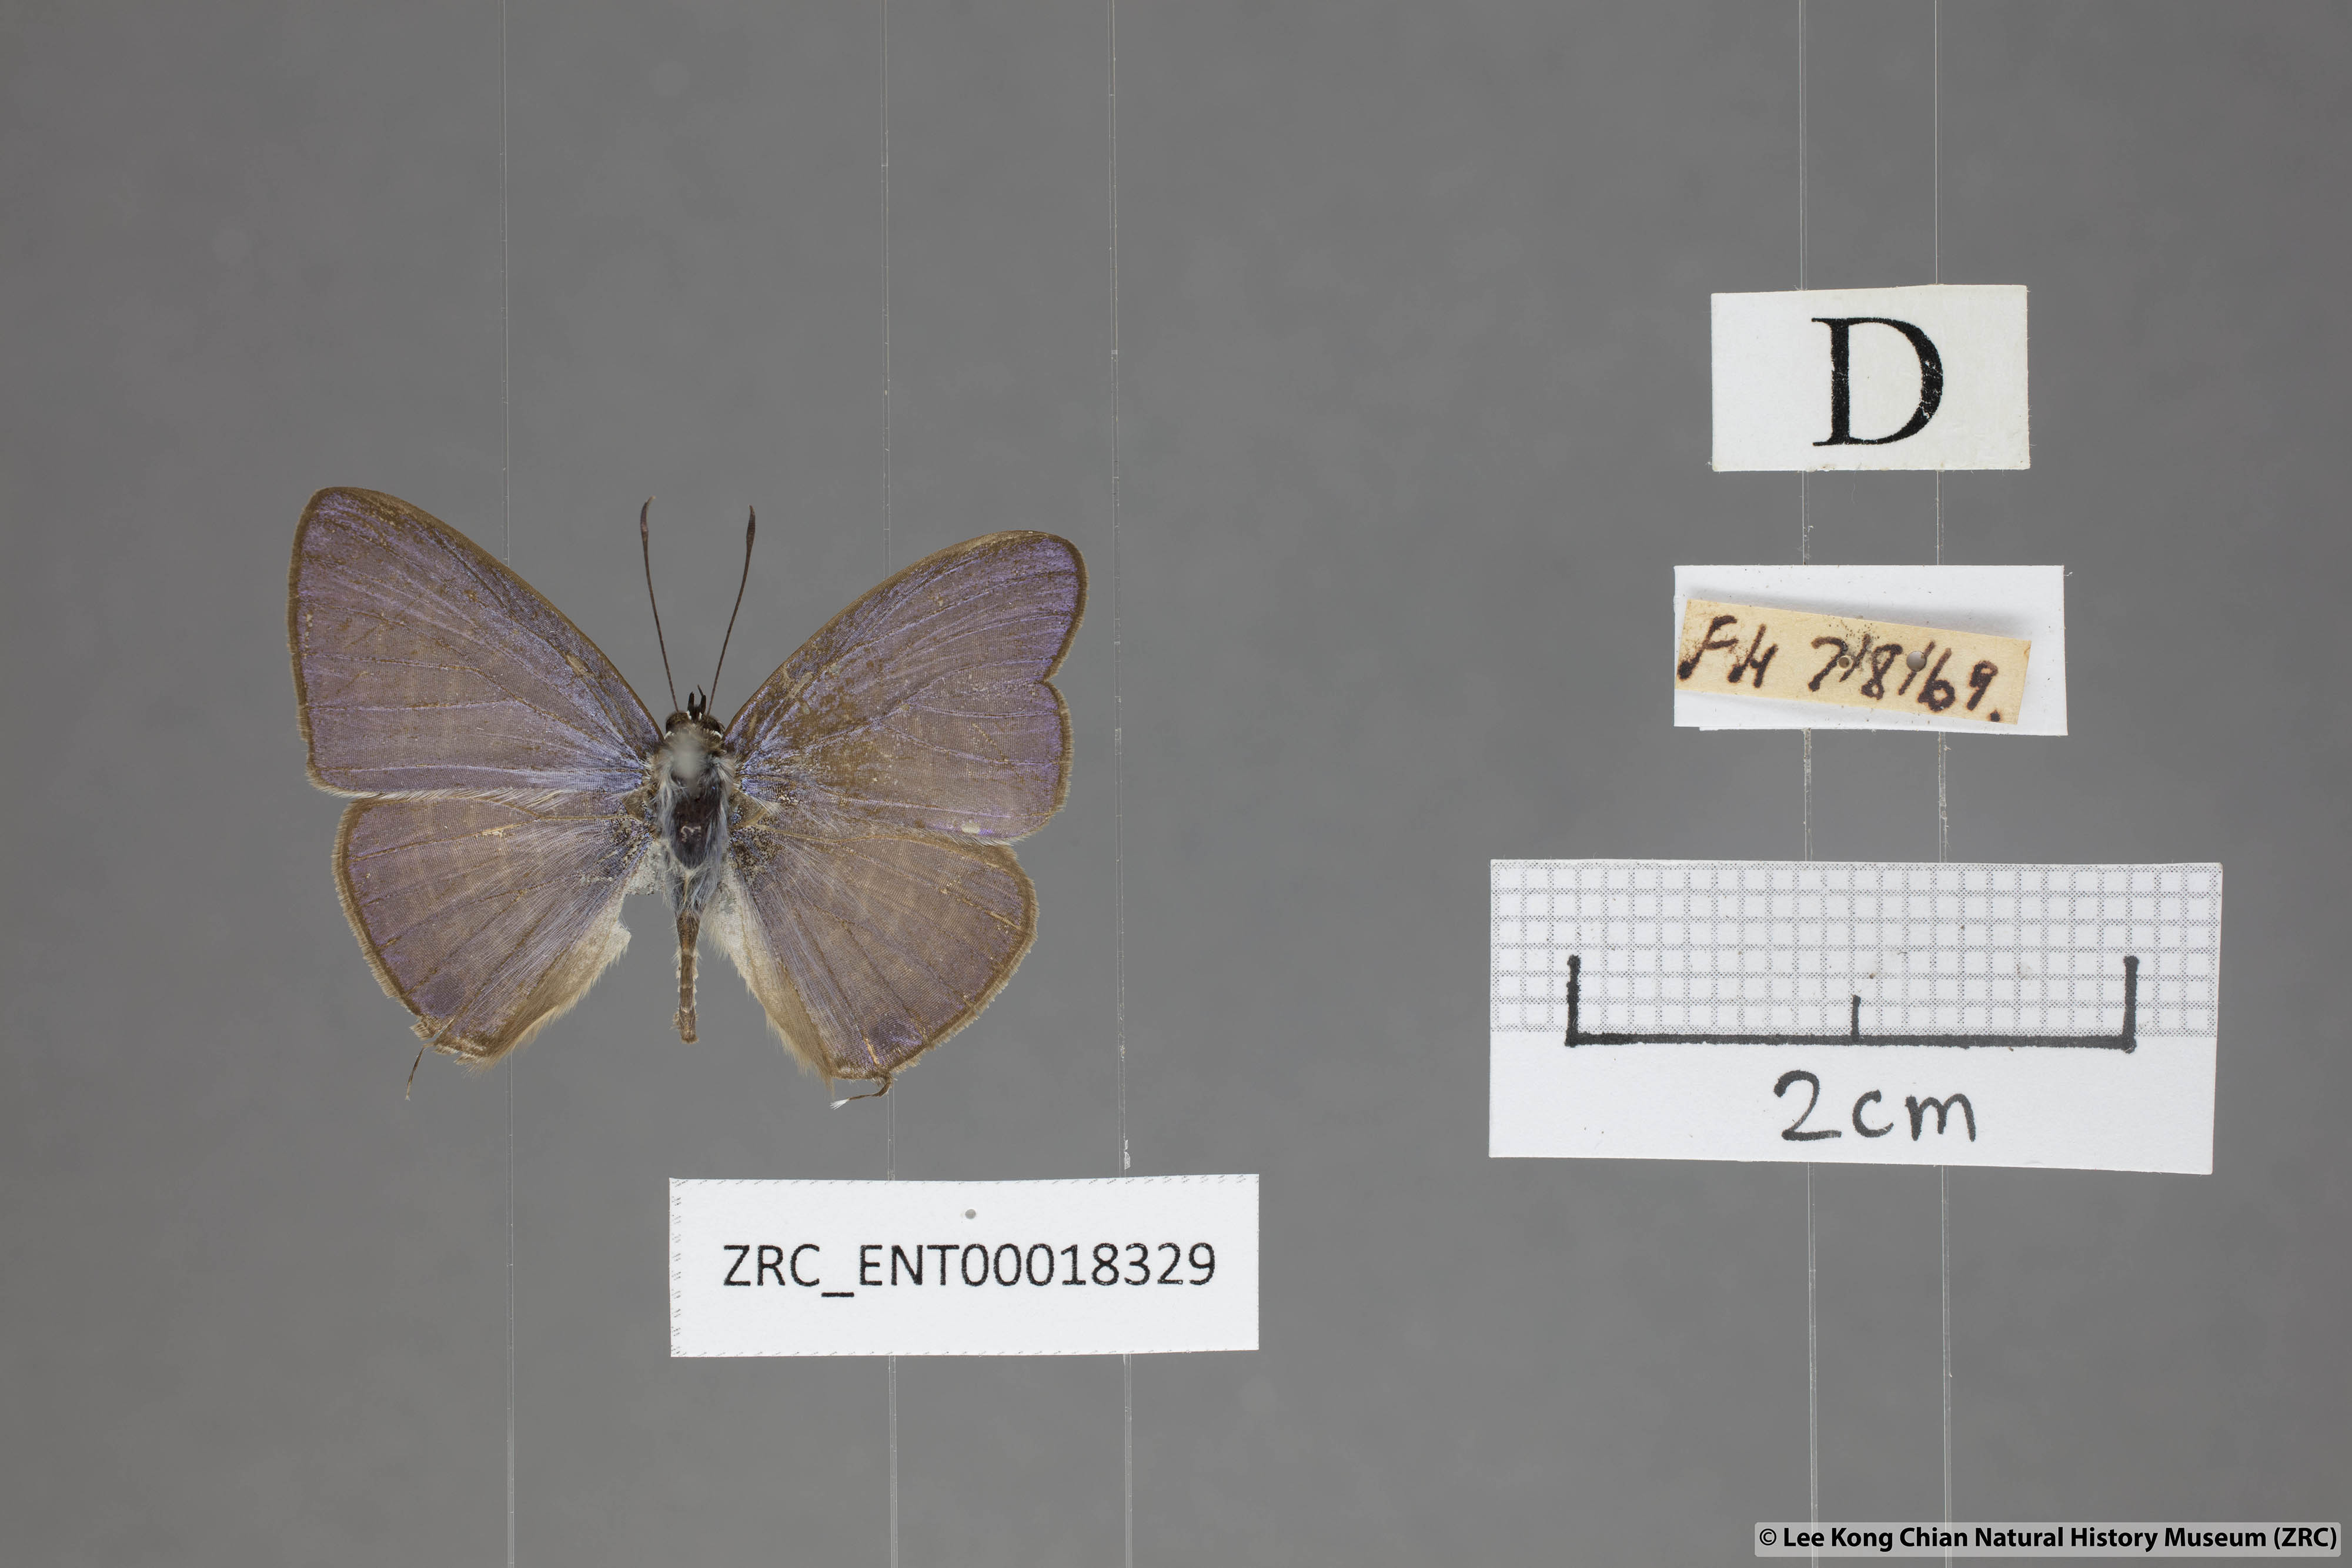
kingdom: Animalia
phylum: Arthropoda
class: Insecta
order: Lepidoptera
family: Lycaenidae
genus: Nacaduba
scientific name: Nacaduba beroe
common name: Opaque sixline blue
